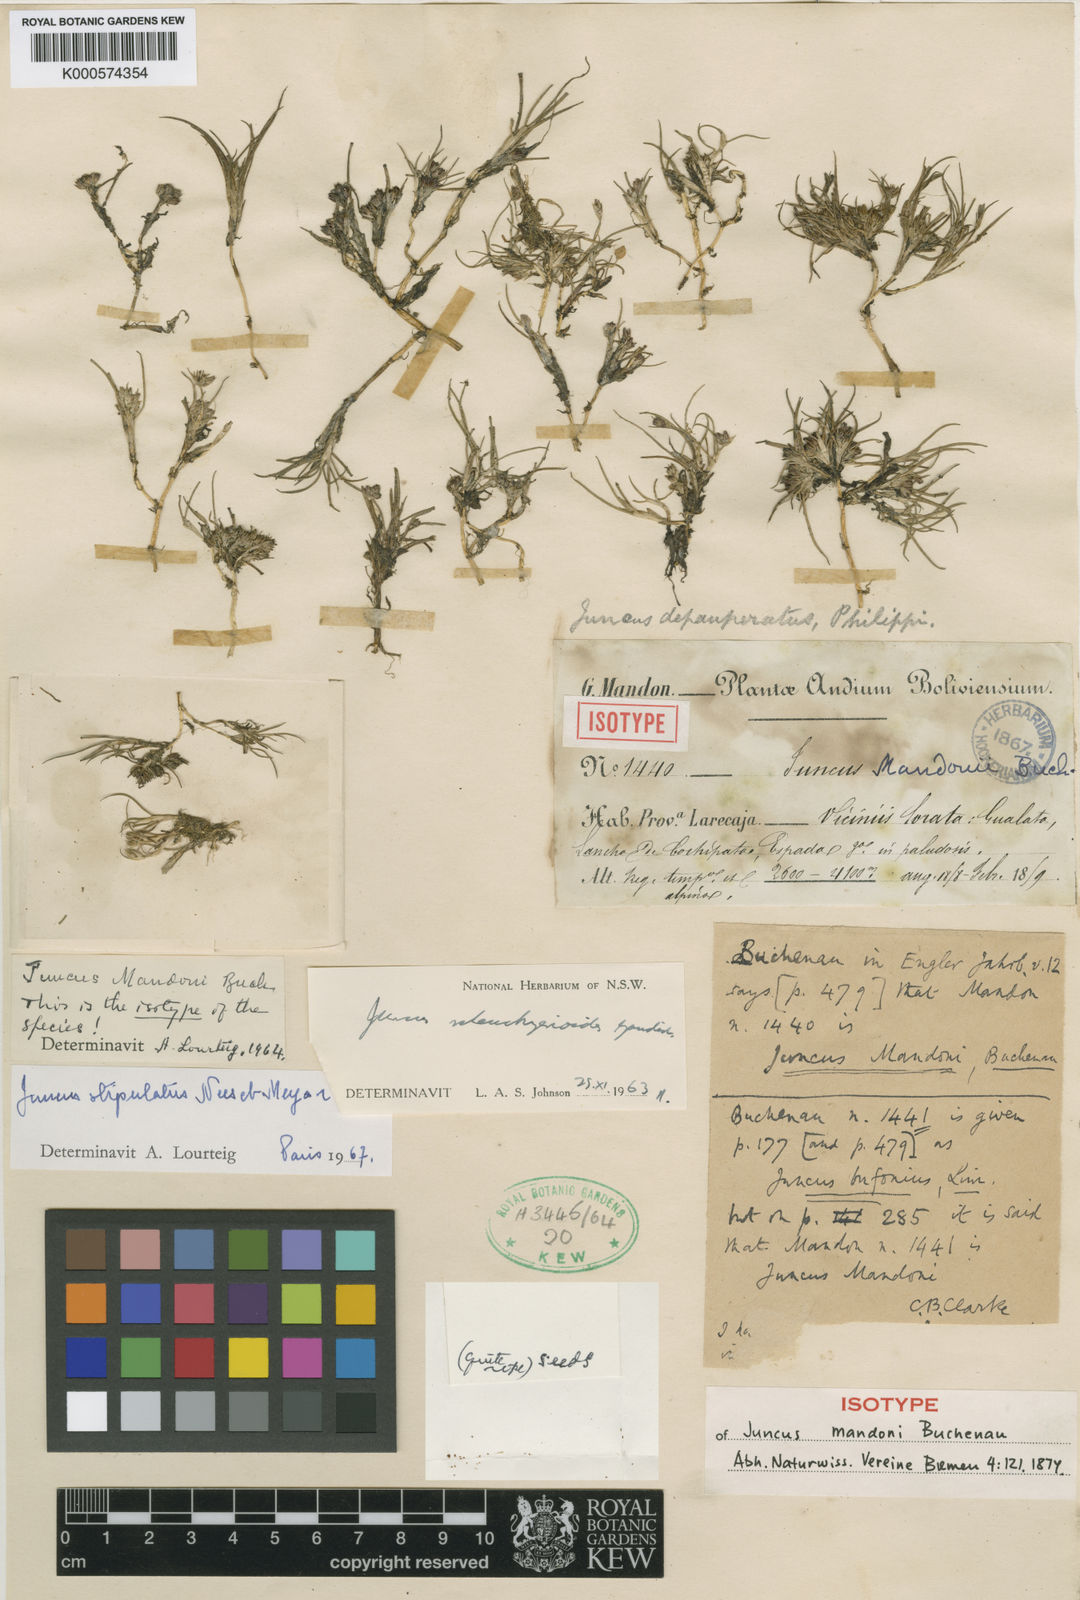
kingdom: Plantae
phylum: Tracheophyta
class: Liliopsida
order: Poales
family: Juncaceae
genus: Juncus
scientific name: Juncus scheuchzerioides
